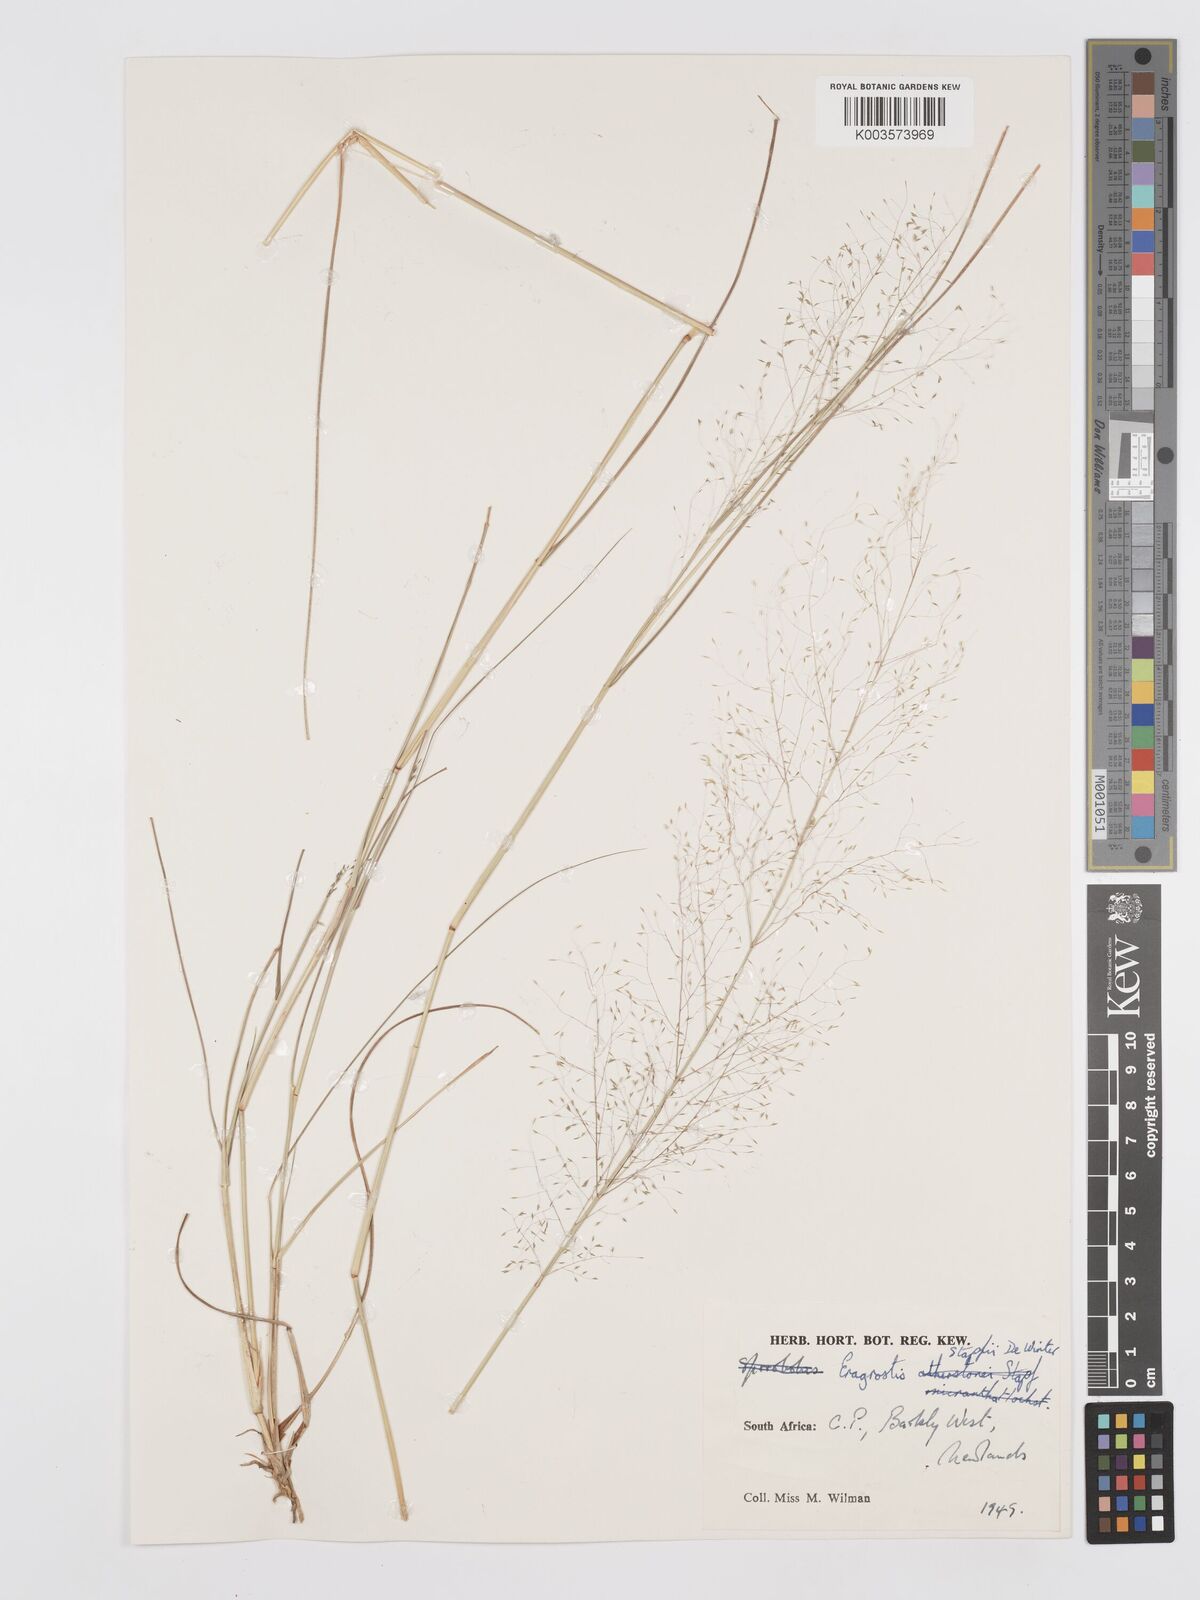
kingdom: Plantae
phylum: Tracheophyta
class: Liliopsida
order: Poales
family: Poaceae
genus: Eragrostis
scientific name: Eragrostis stapfii
